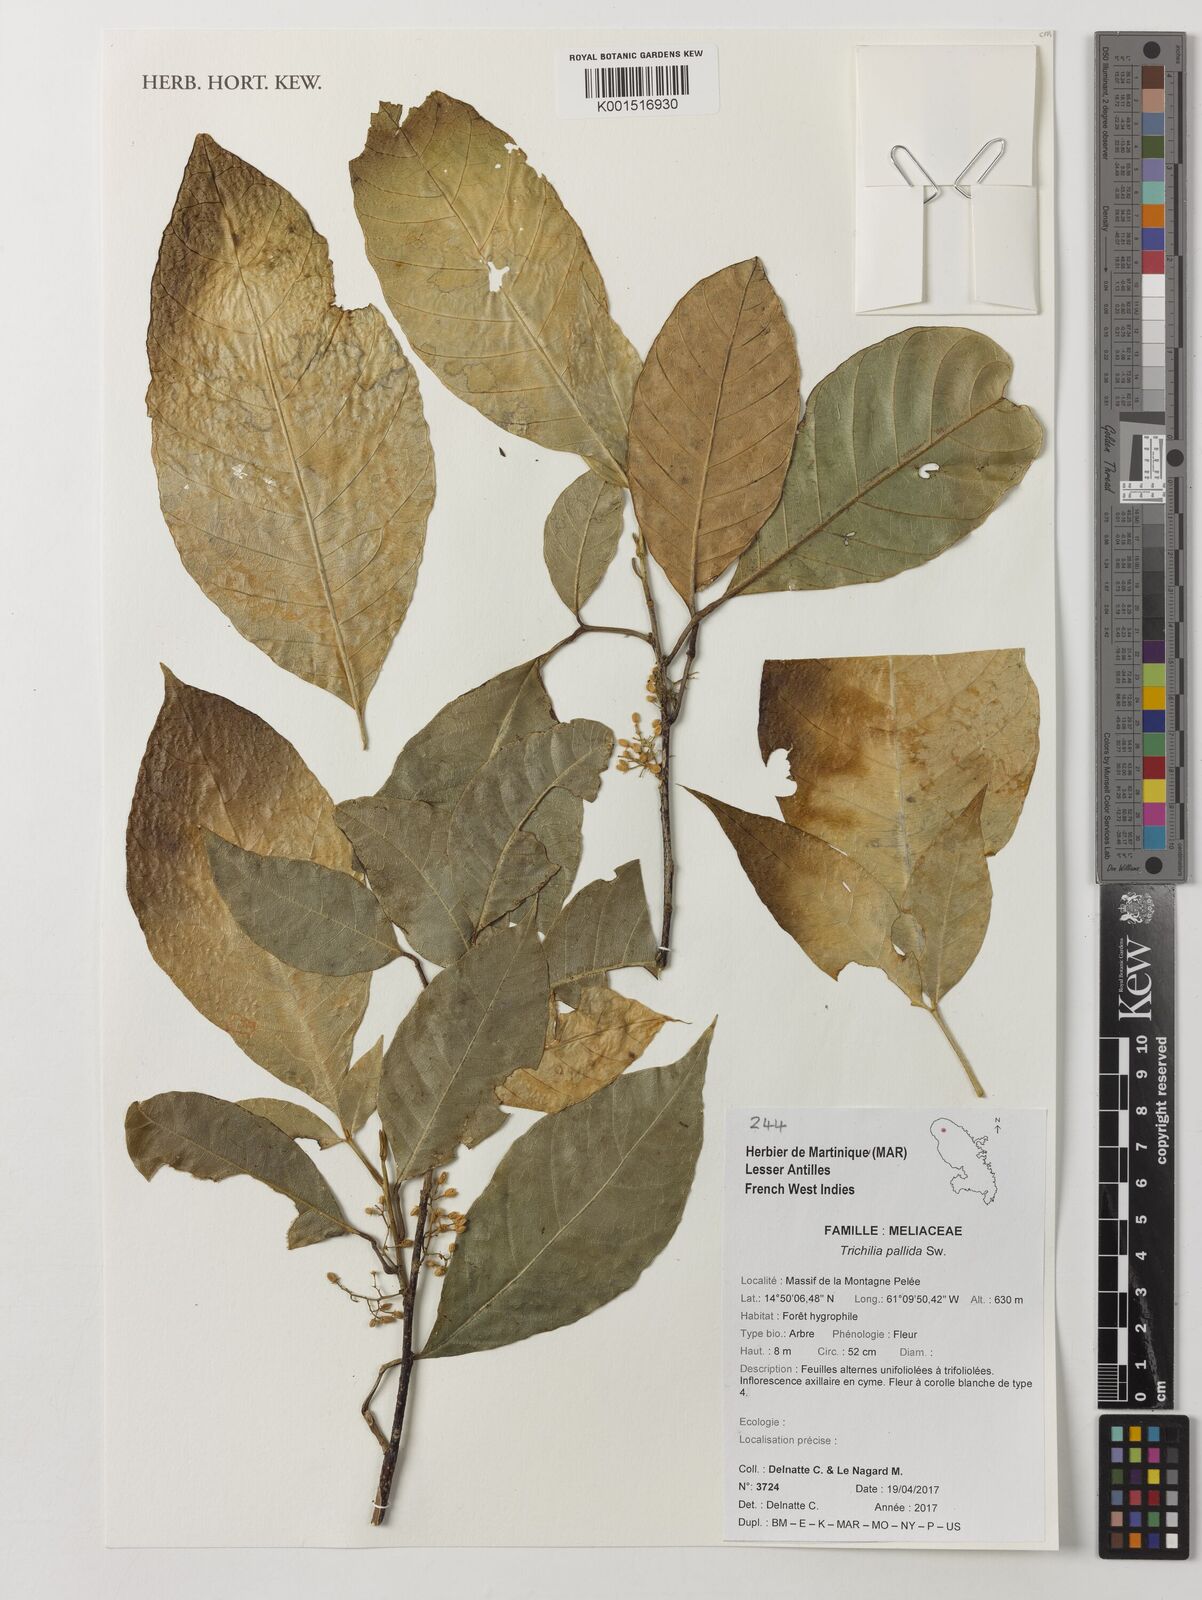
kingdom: Plantae
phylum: Tracheophyta
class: Magnoliopsida
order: Sapindales
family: Meliaceae
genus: Trichilia
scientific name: Trichilia pallida
